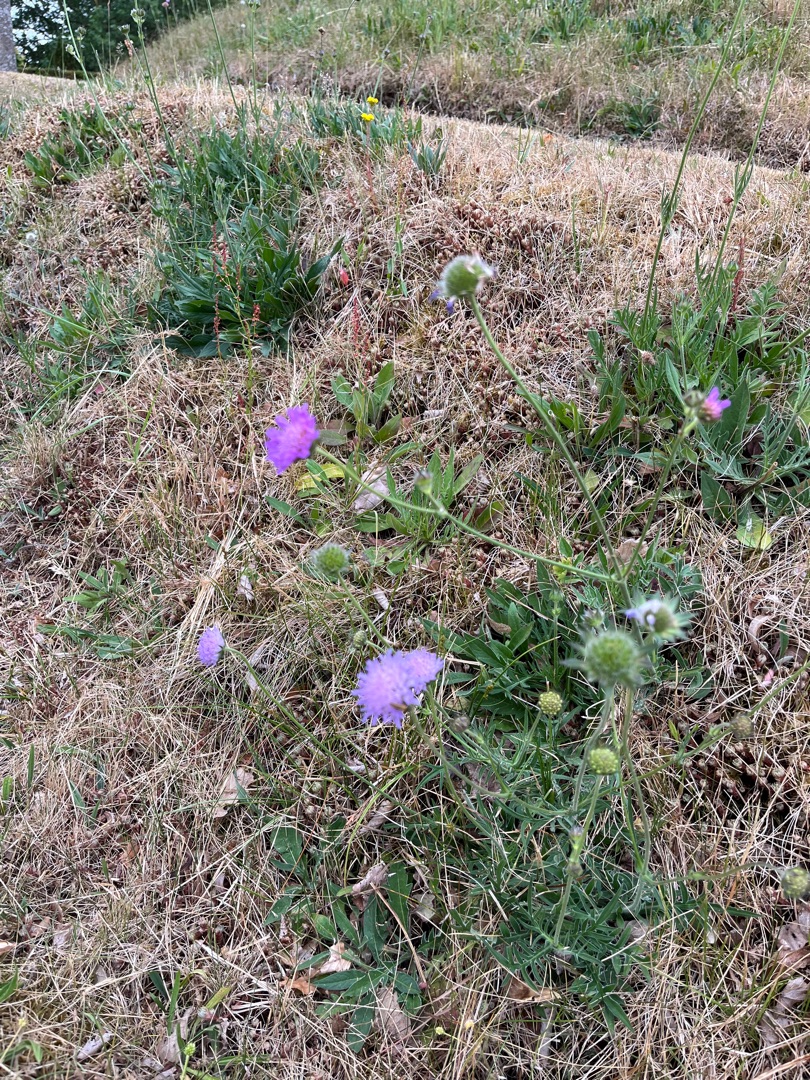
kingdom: Plantae
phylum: Tracheophyta
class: Magnoliopsida
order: Dipsacales
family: Caprifoliaceae
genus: Knautia
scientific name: Knautia arvensis
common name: Blåhat
